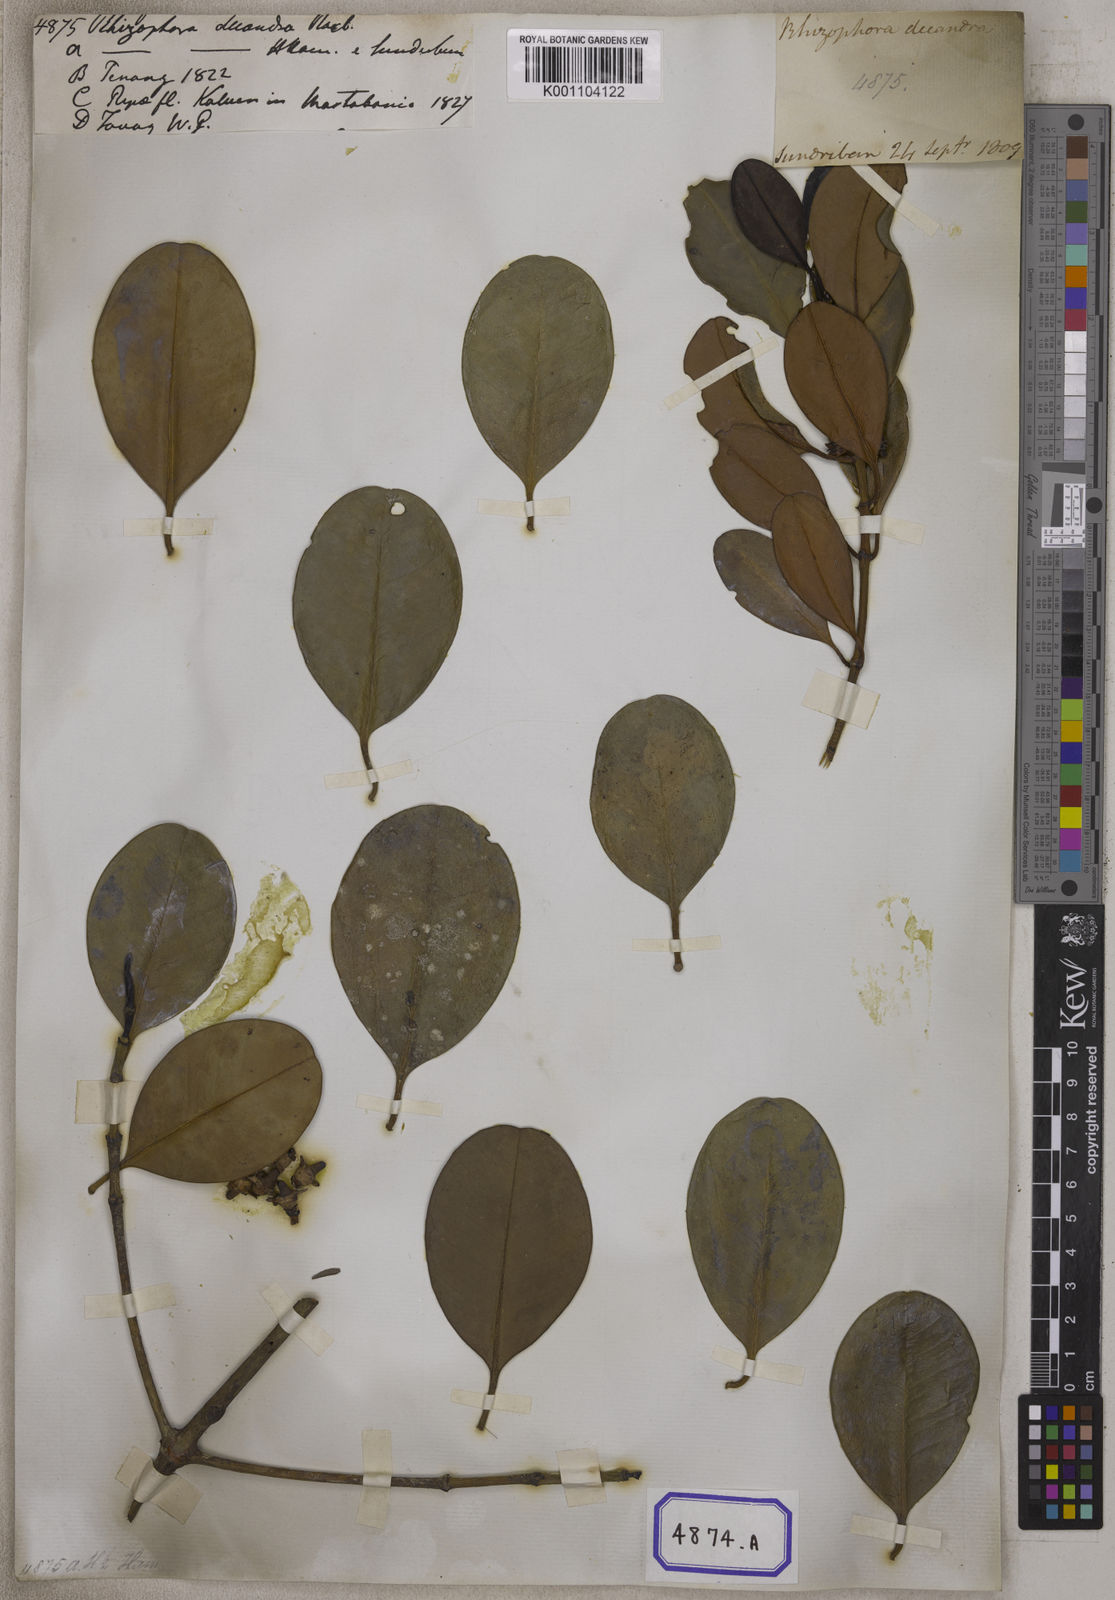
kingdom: Plantae
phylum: Tracheophyta
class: Magnoliopsida
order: Malpighiales
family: Rhizophoraceae
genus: Rhizophora
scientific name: Rhizophora
